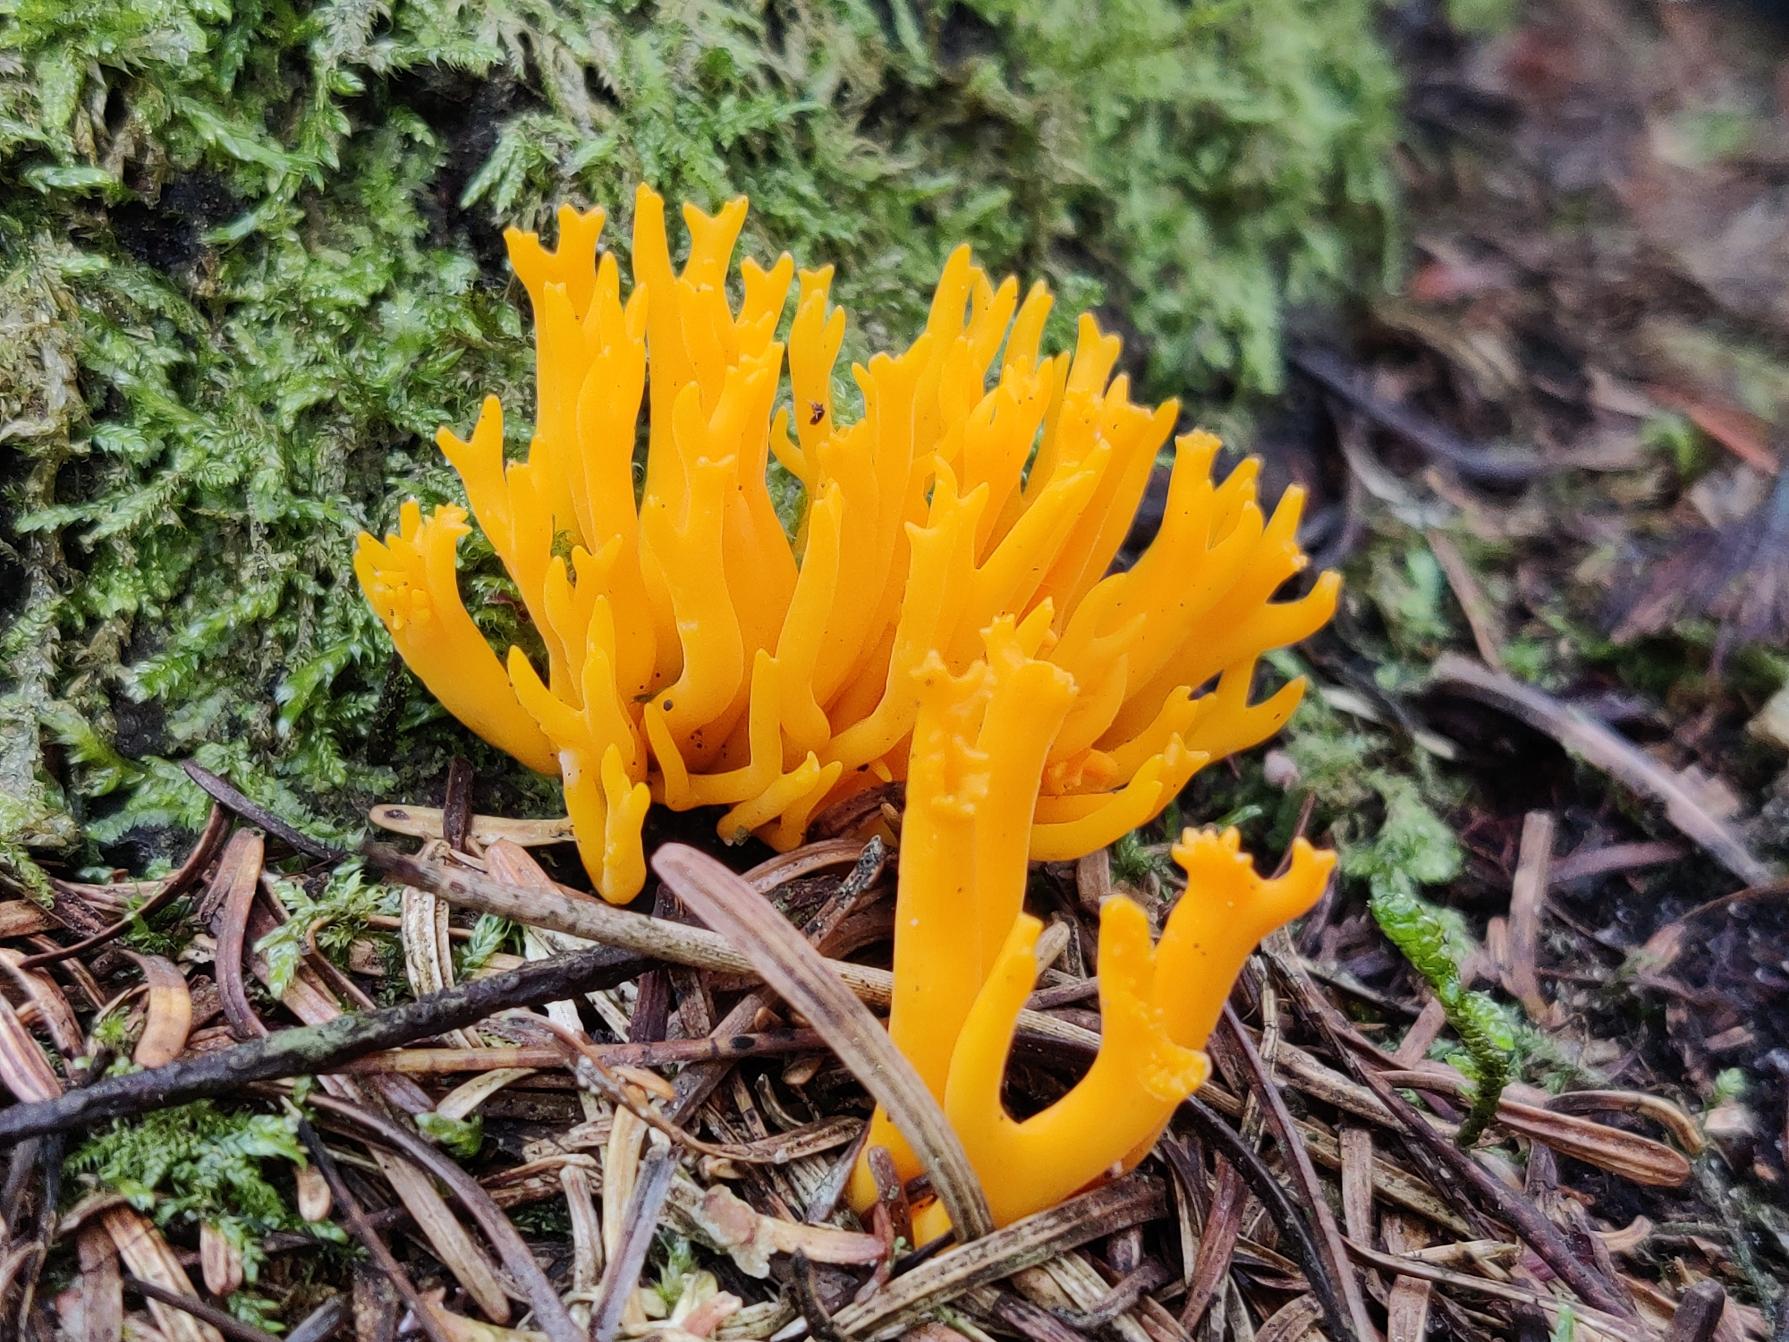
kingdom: Fungi
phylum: Basidiomycota
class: Dacrymycetes
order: Dacrymycetales
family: Dacrymycetaceae
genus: Calocera
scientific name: Calocera viscosa
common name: Almindelig guldgaffel
